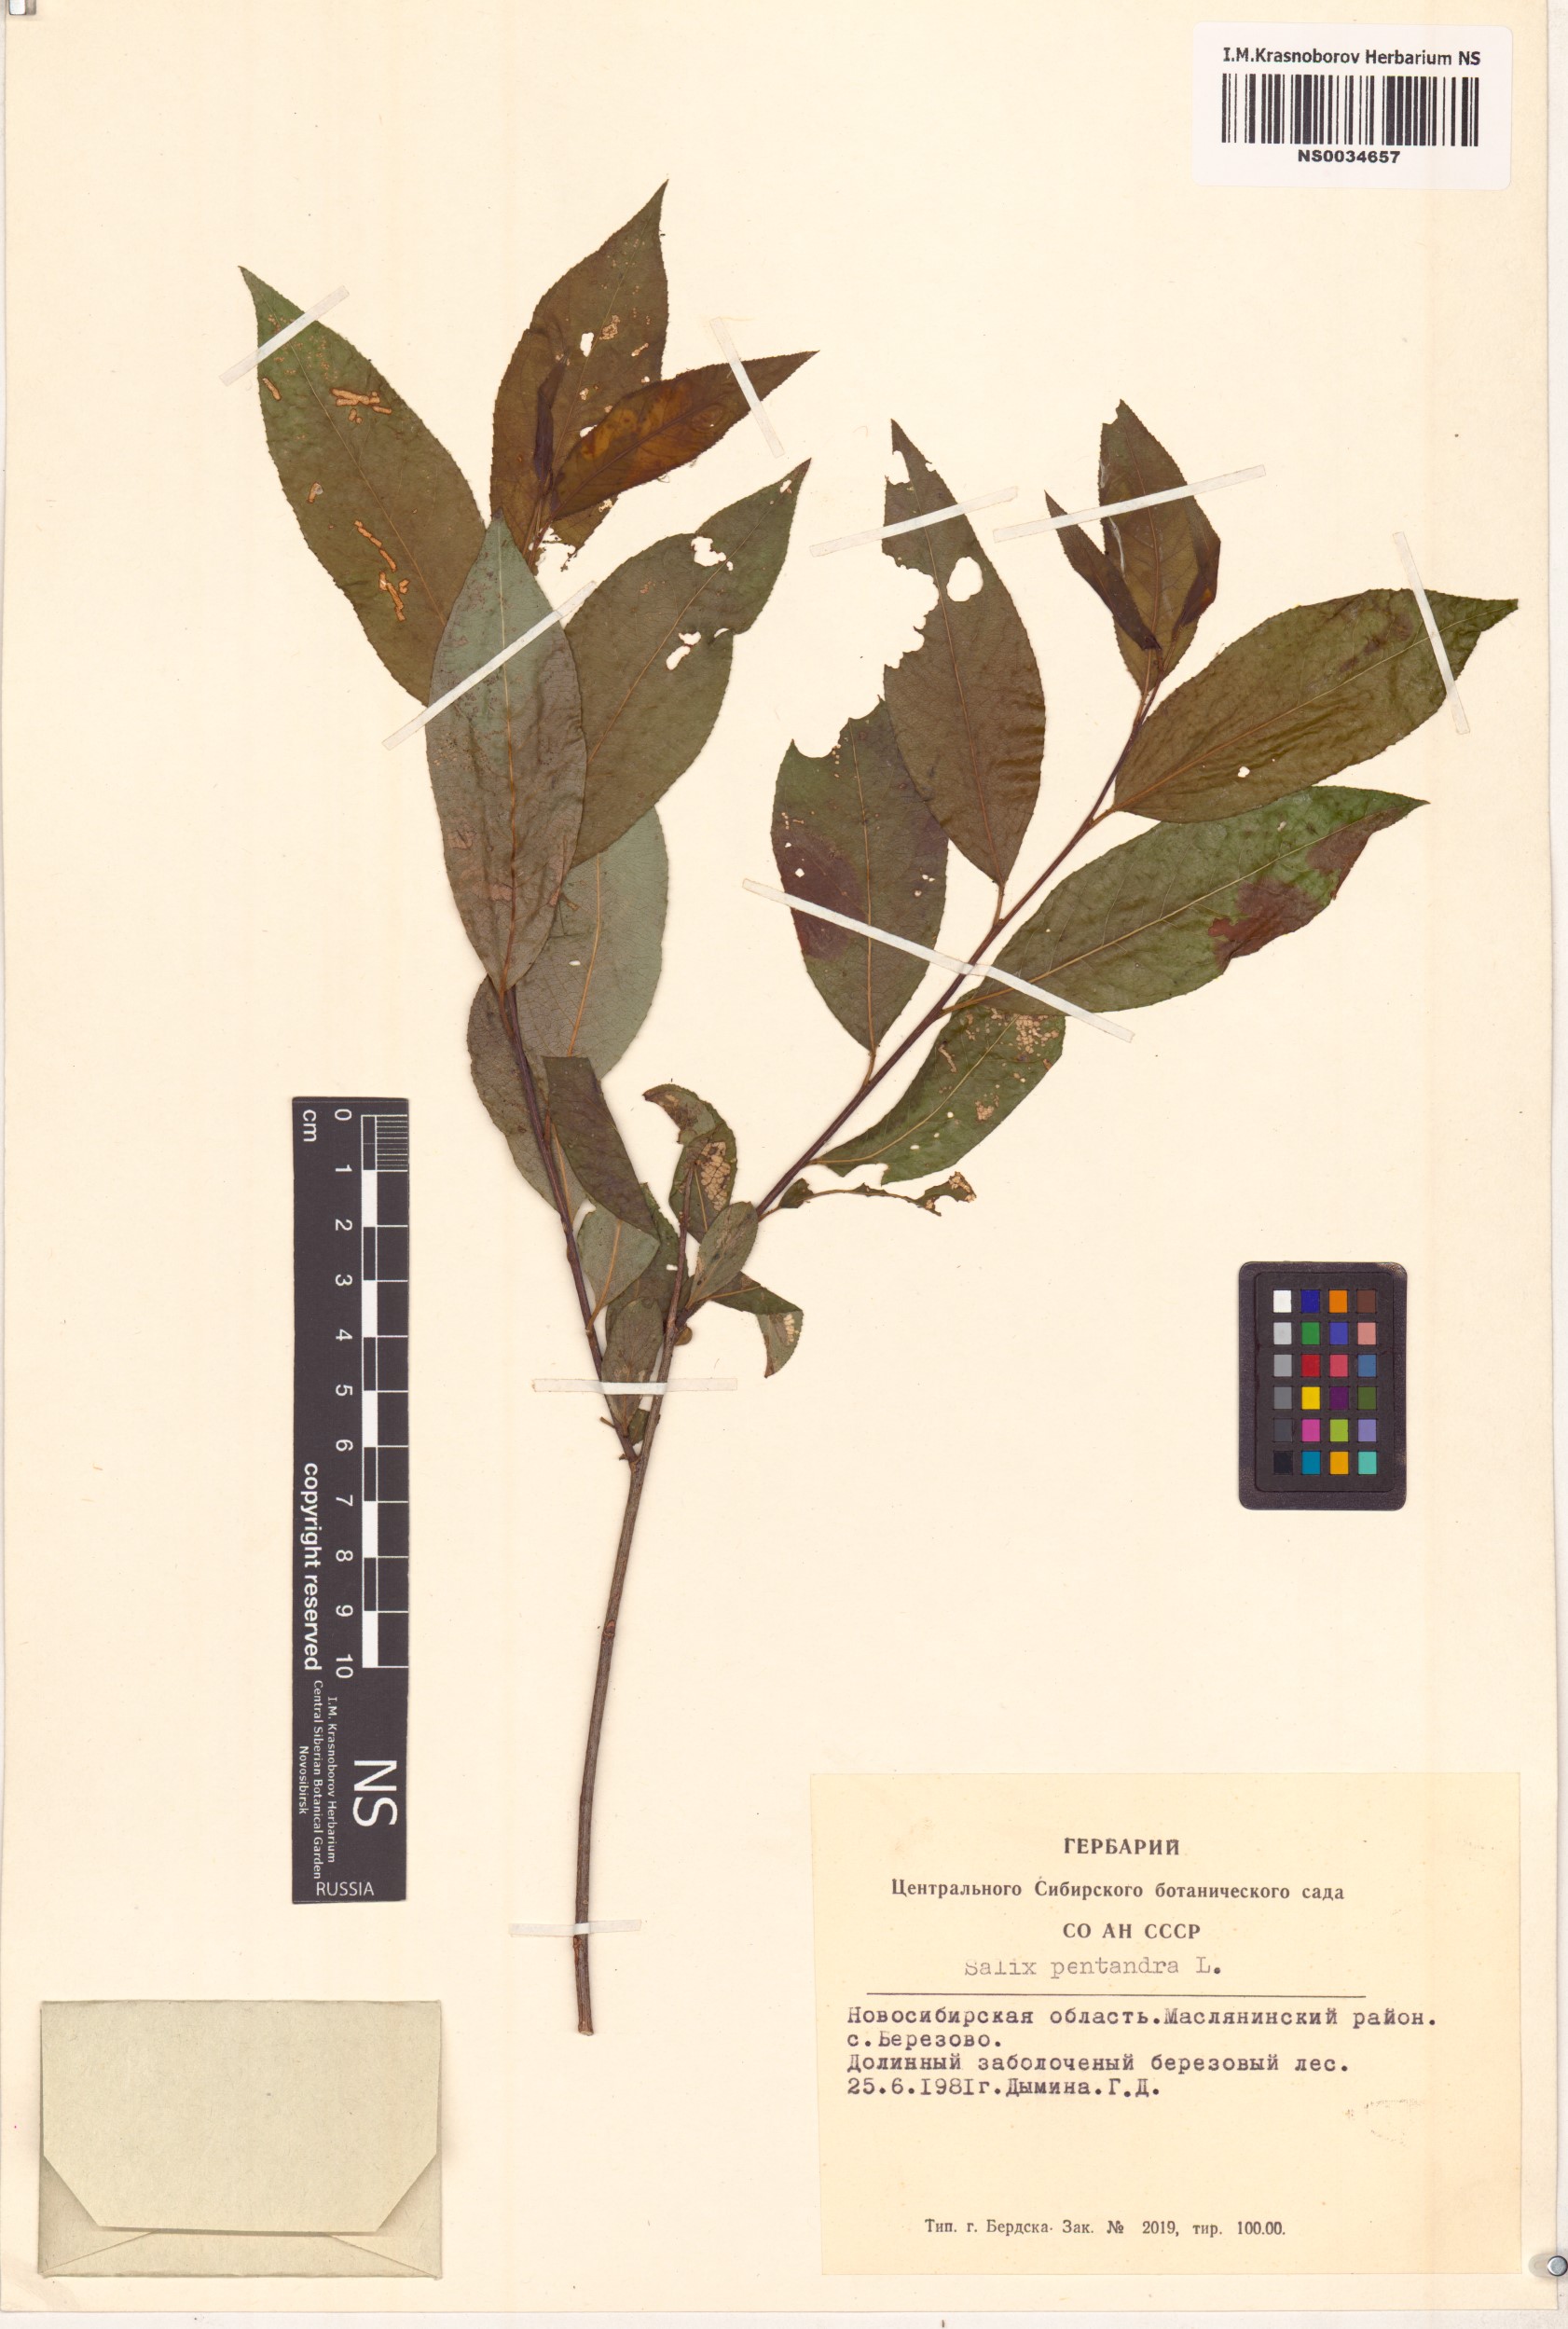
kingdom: Plantae
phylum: Tracheophyta
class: Magnoliopsida
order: Malpighiales
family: Salicaceae
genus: Salix
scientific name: Salix pentandra
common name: Bay willow
